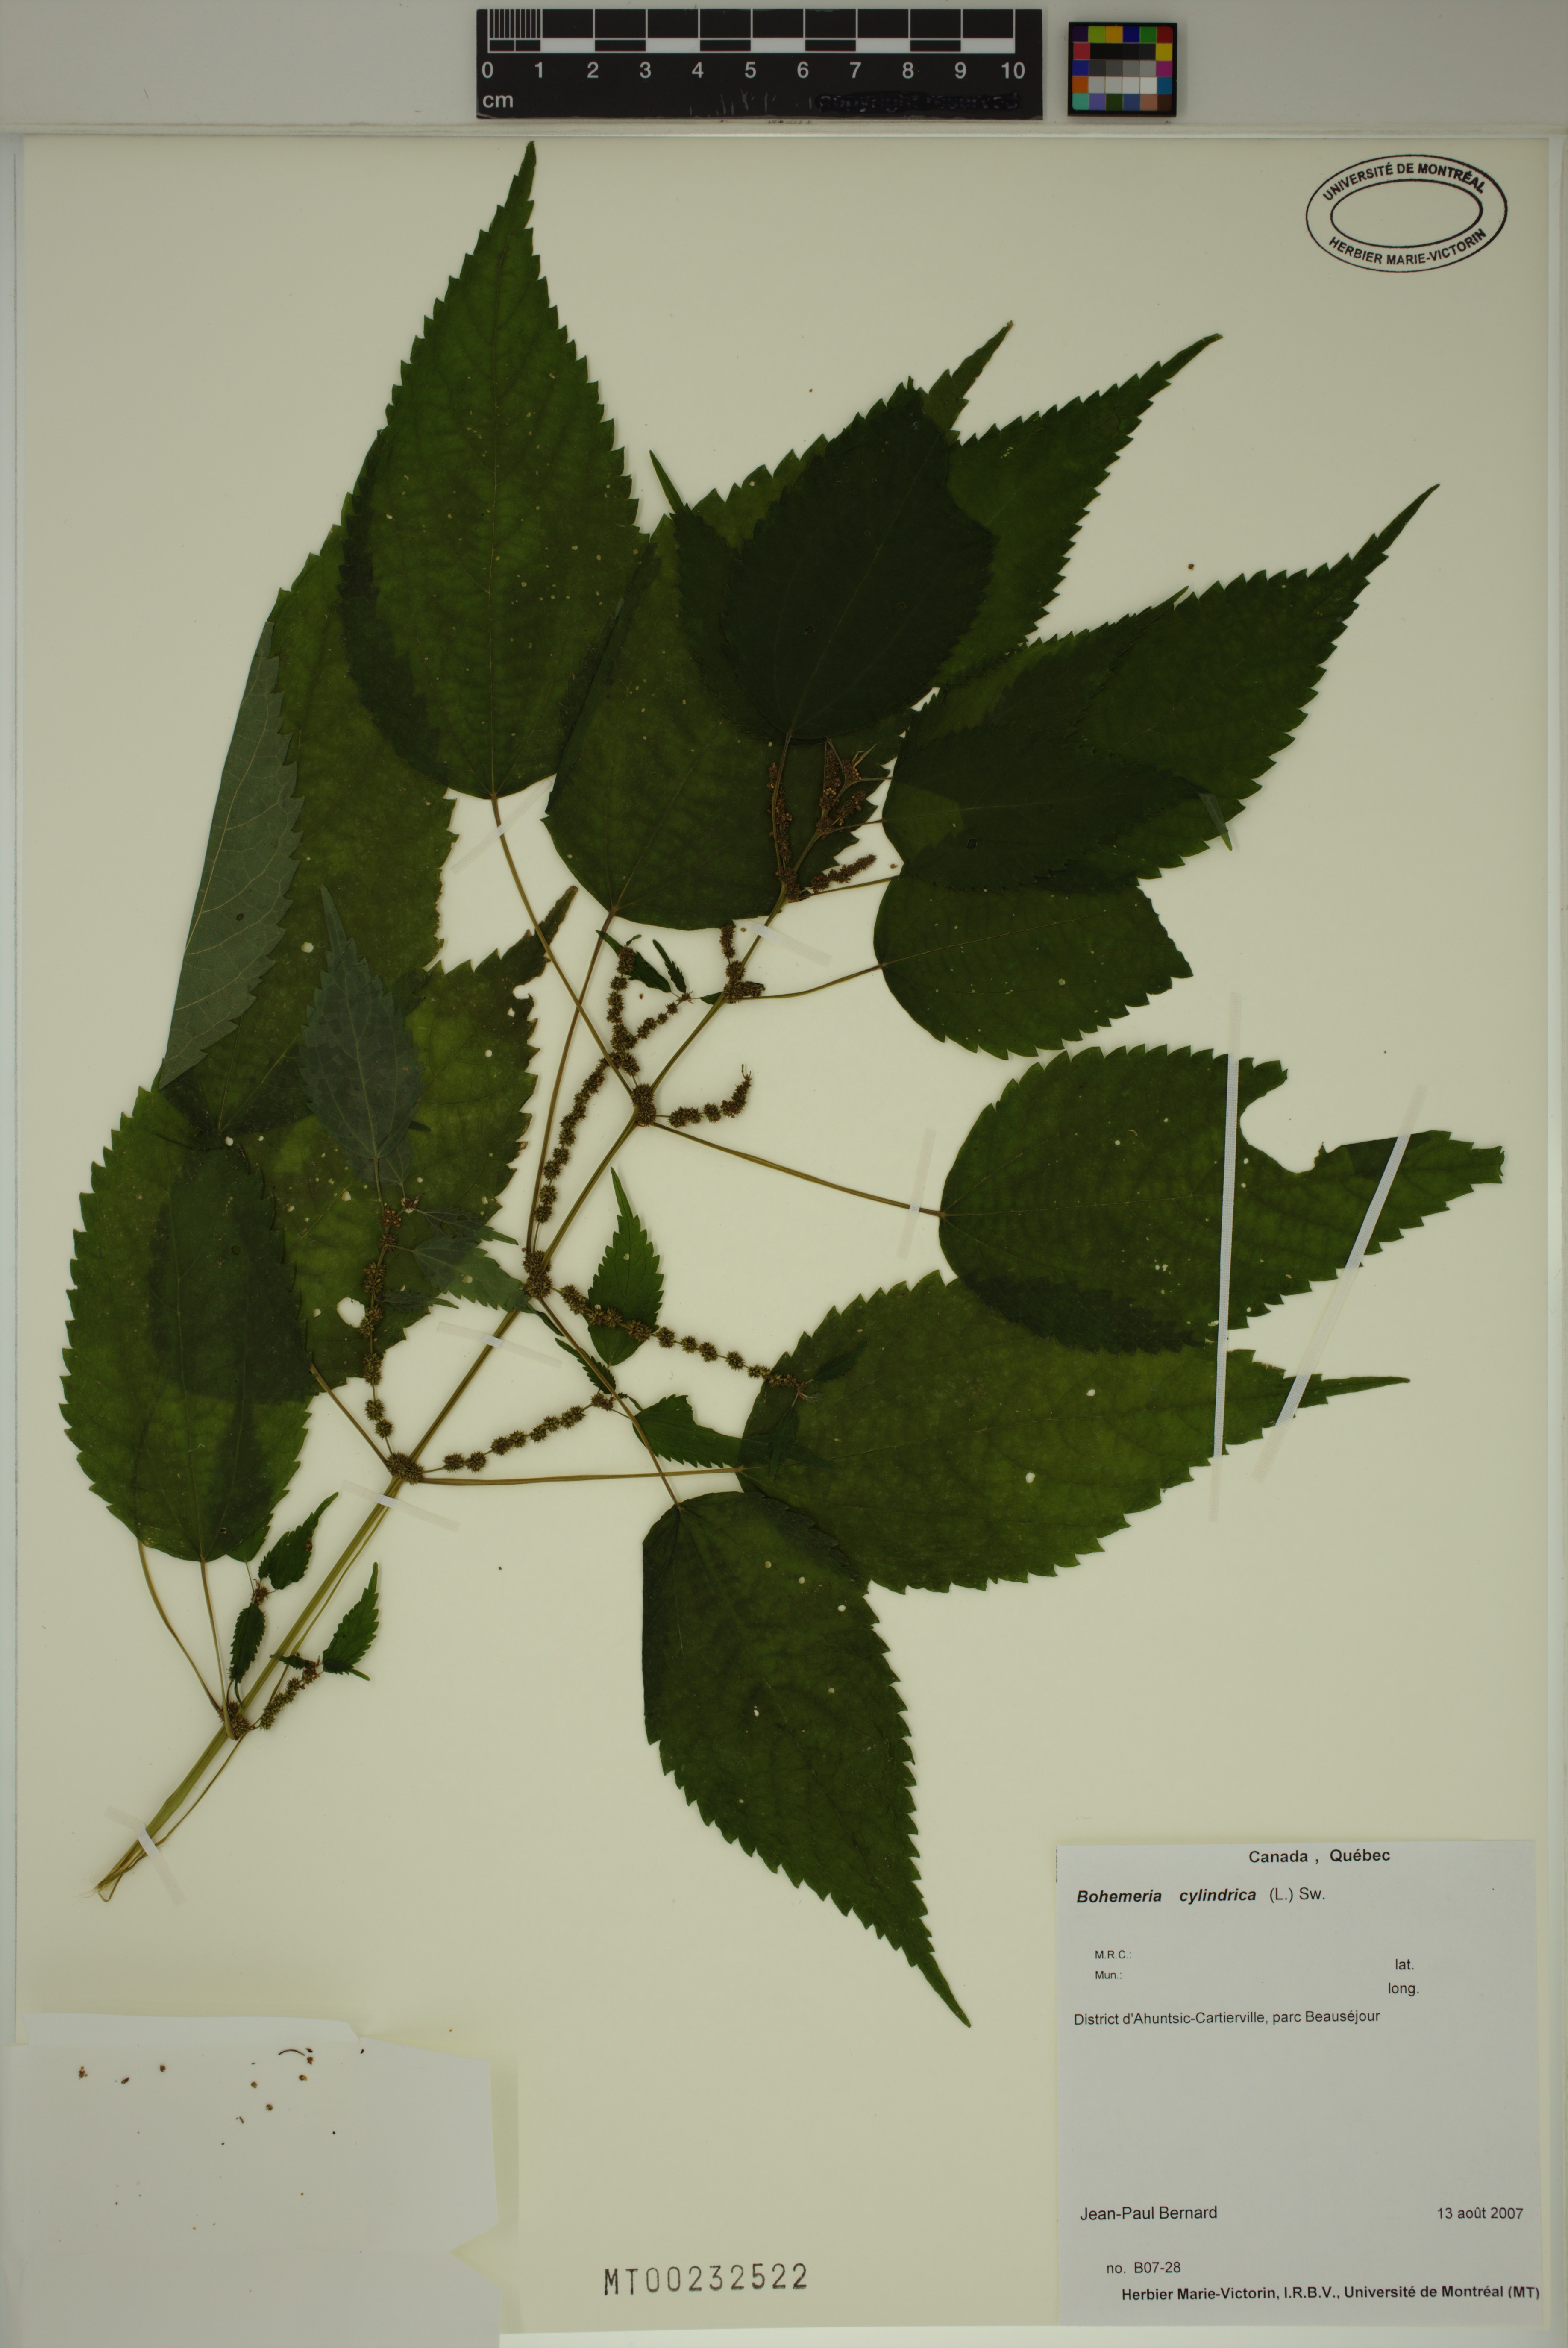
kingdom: Plantae
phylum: Tracheophyta
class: Magnoliopsida
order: Rosales
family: Urticaceae
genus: Boehmeria
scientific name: Boehmeria cylindrica
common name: Bog-hemp
